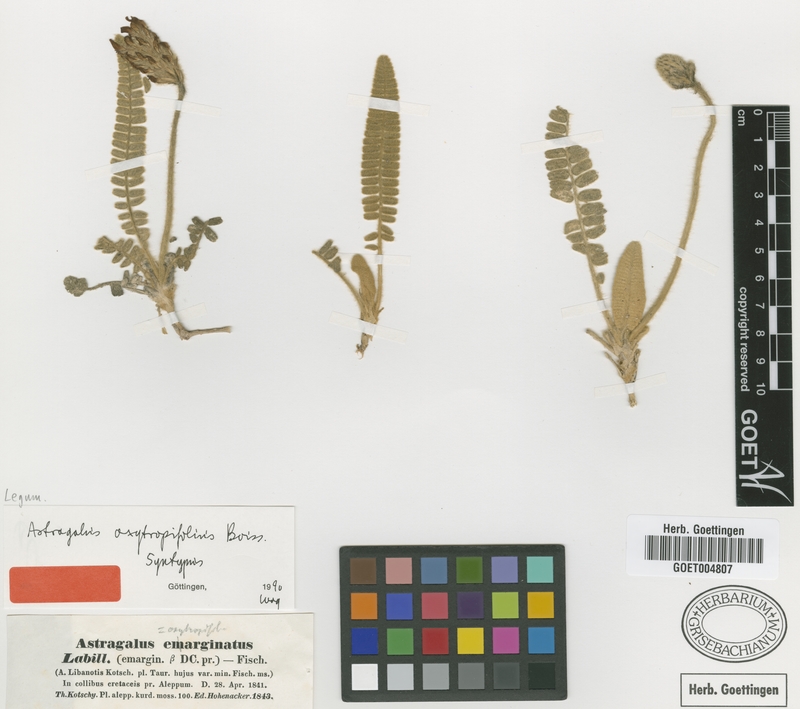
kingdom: Plantae
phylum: Tracheophyta
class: Magnoliopsida
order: Fabales
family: Fabaceae
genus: Astragalus
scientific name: Astragalus oxytropifolius
